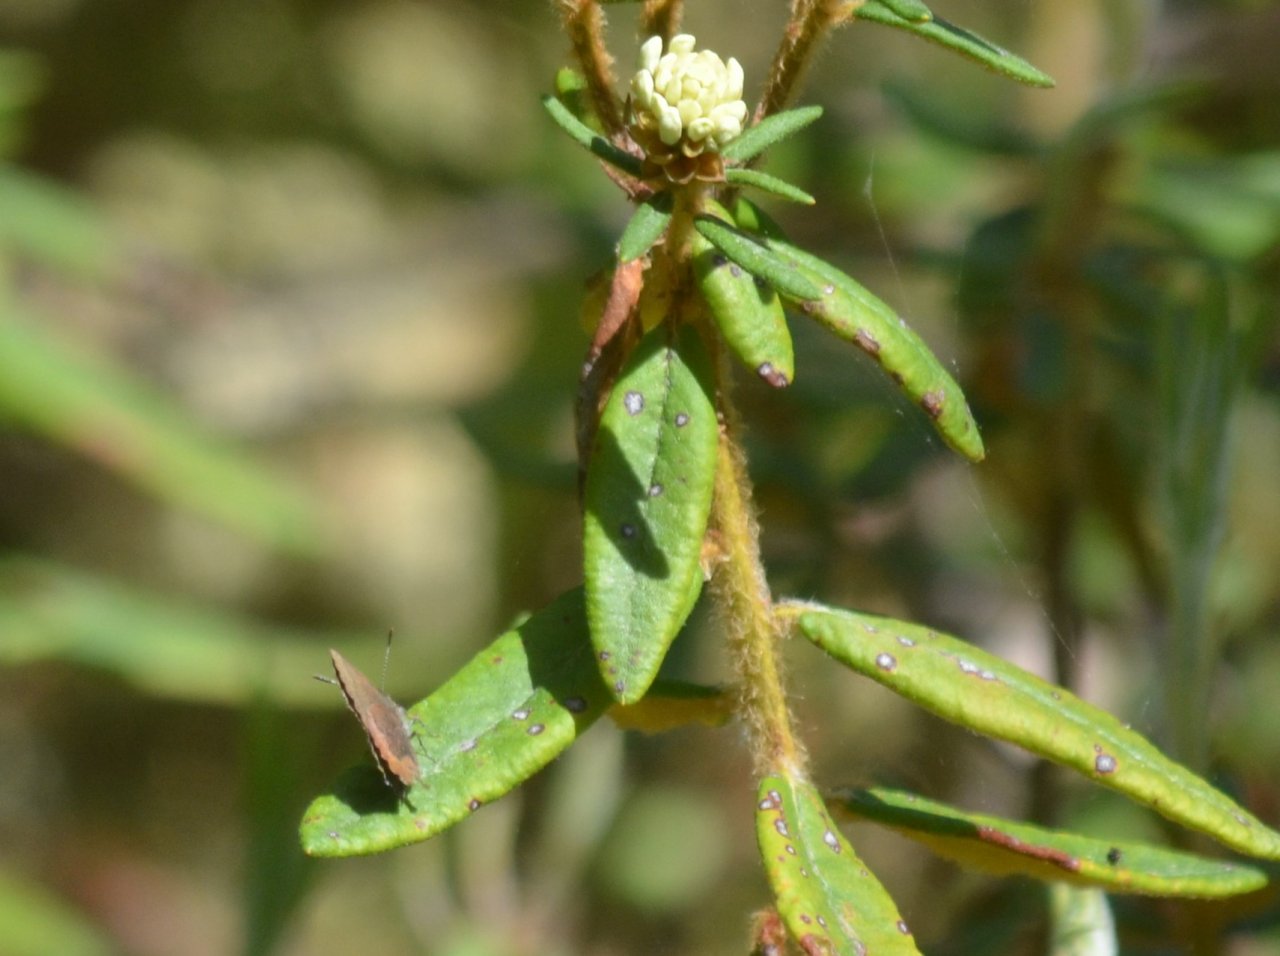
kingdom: Animalia
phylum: Arthropoda
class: Insecta
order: Lepidoptera
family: Lycaenidae
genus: Incisalia
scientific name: Incisalia irioides
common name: Brown Elfin
